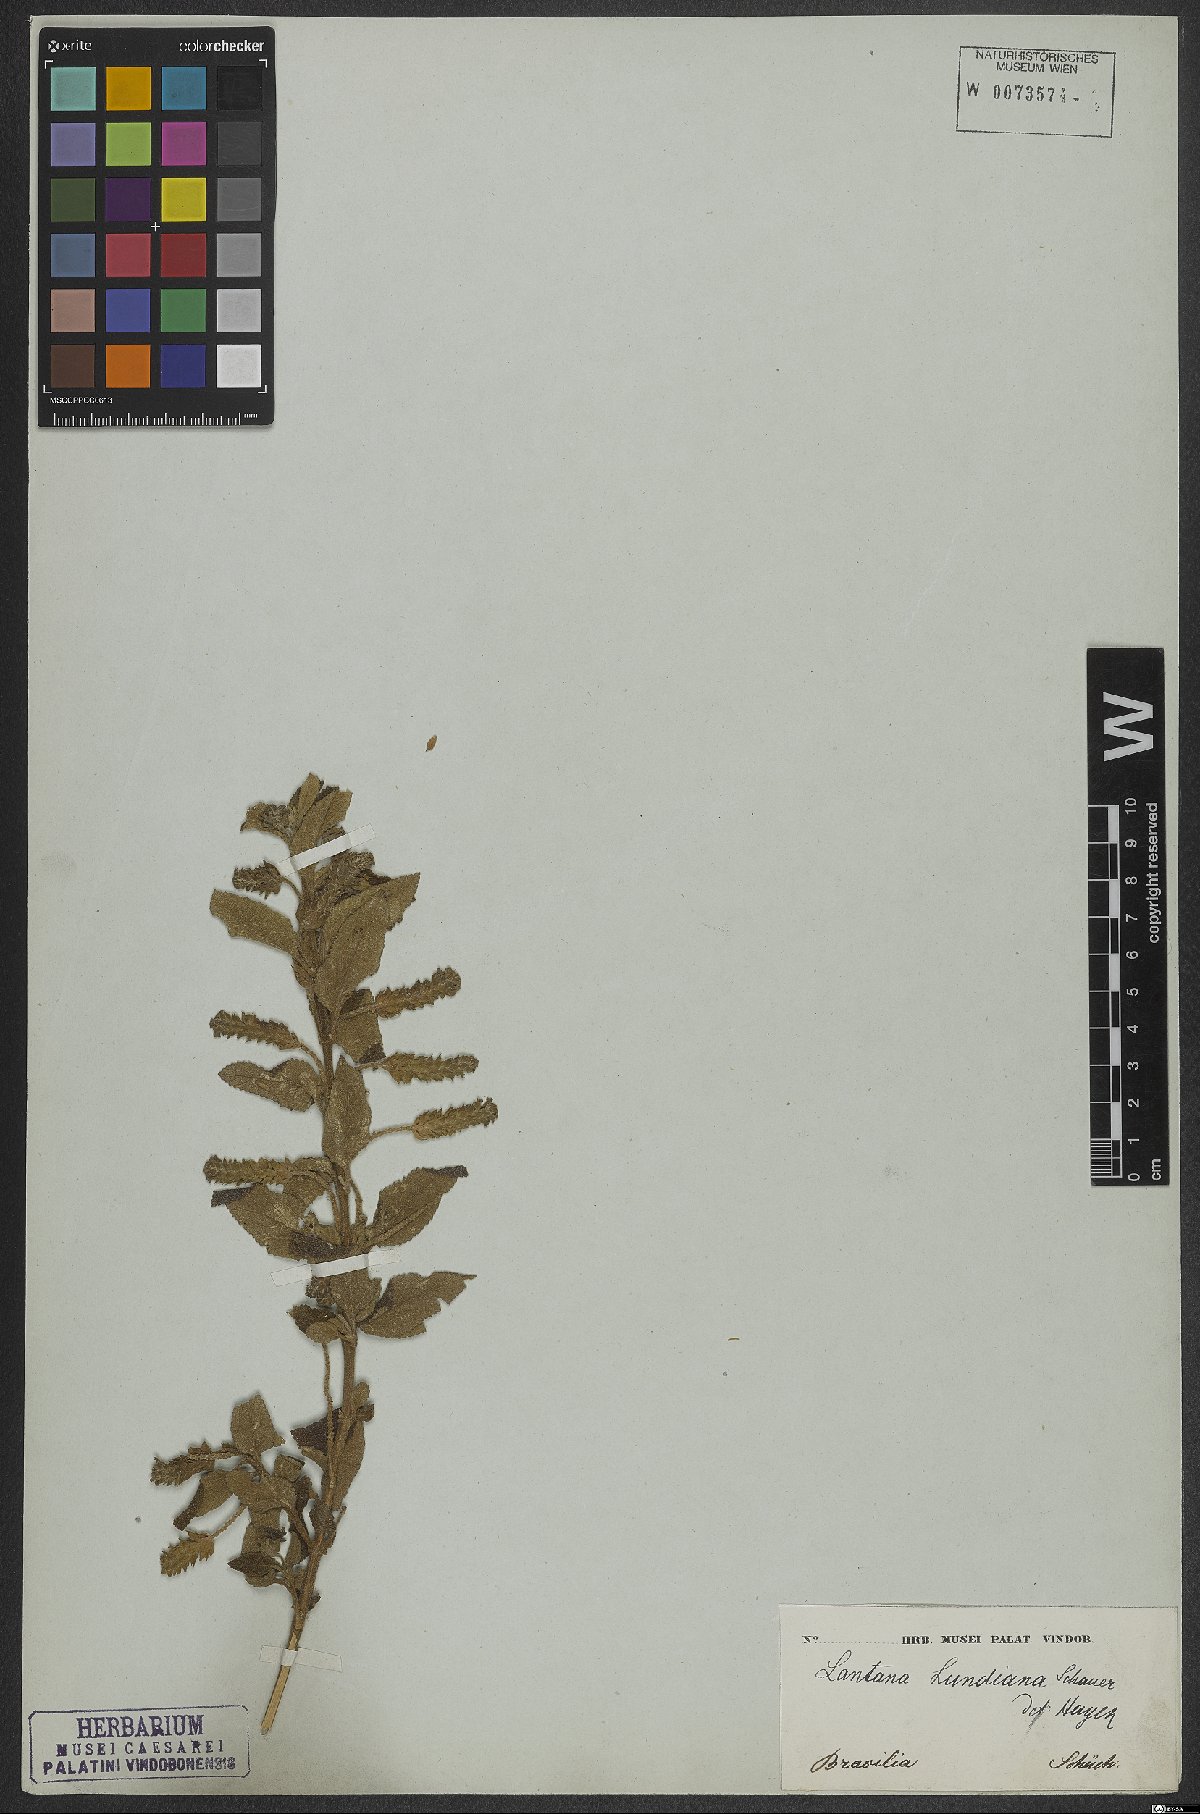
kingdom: Plantae
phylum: Tracheophyta
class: Magnoliopsida
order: Lamiales
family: Verbenaceae
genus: Lantana
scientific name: Lantana lundiana
